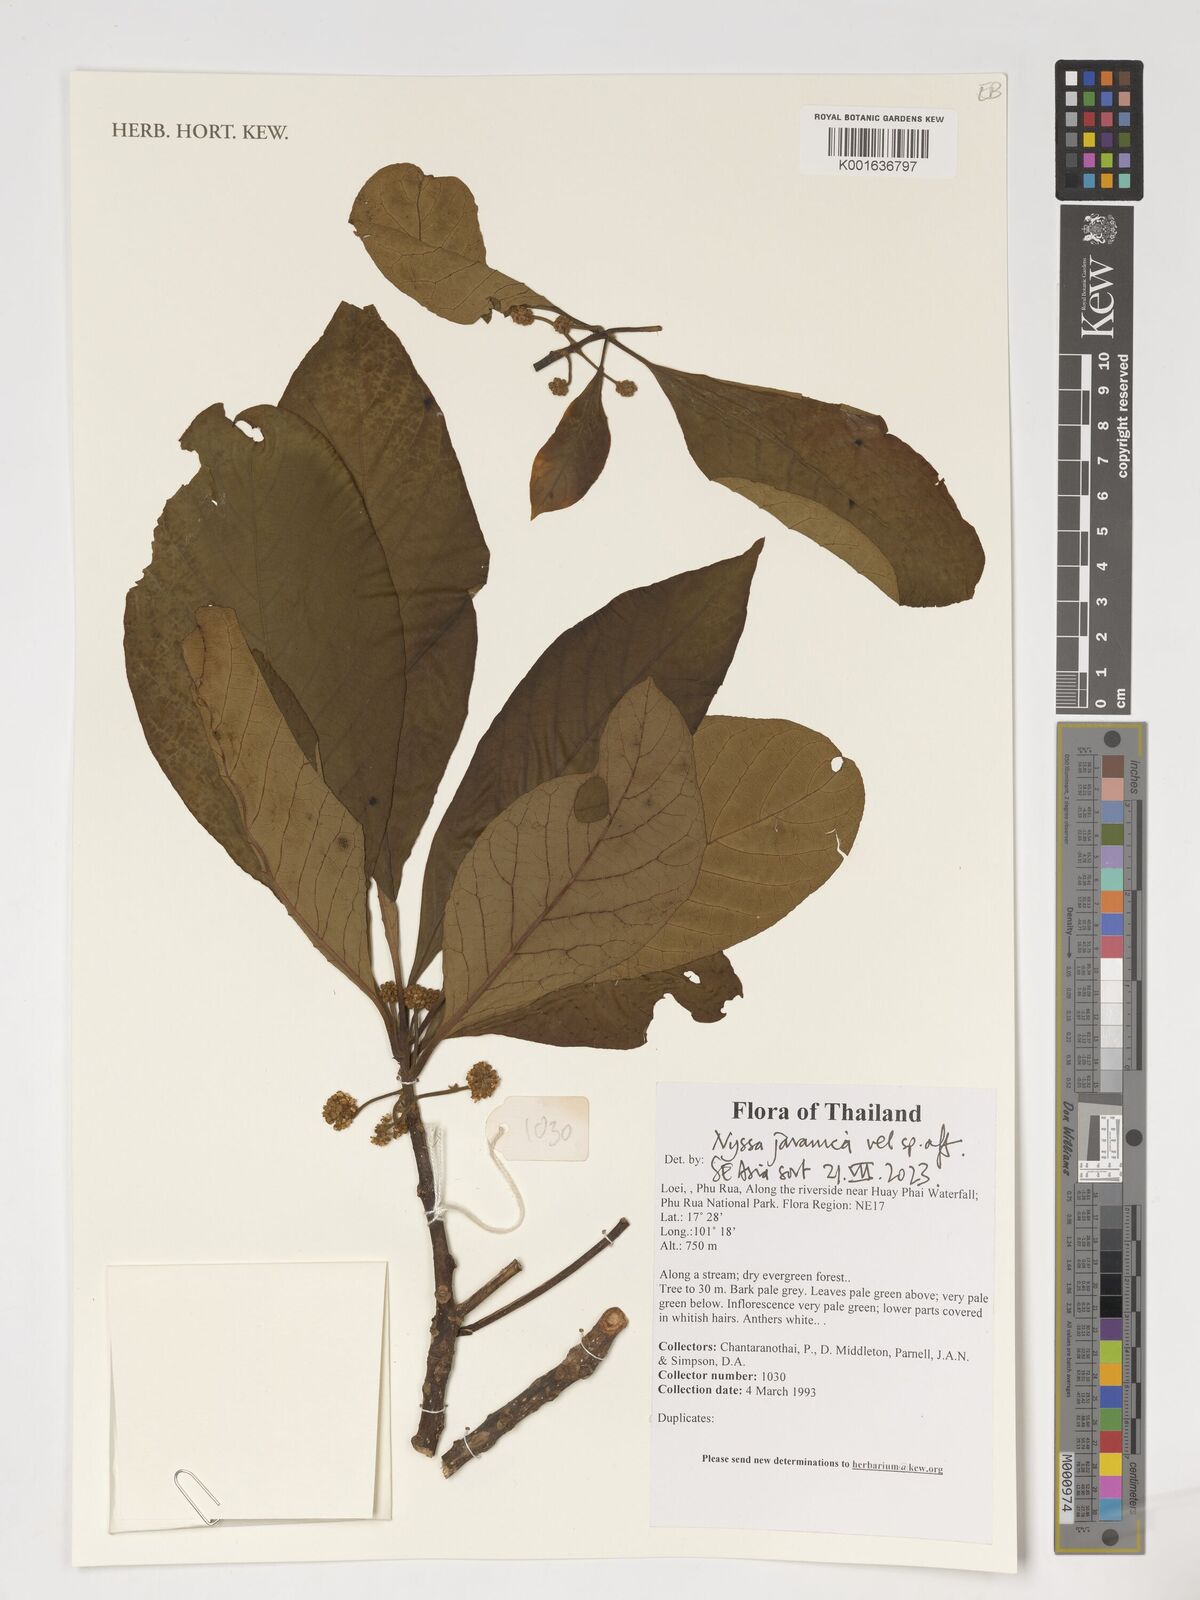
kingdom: Plantae
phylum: Tracheophyta
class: Magnoliopsida
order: Cornales
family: Nyssaceae
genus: Nyssa
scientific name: Nyssa javanica
